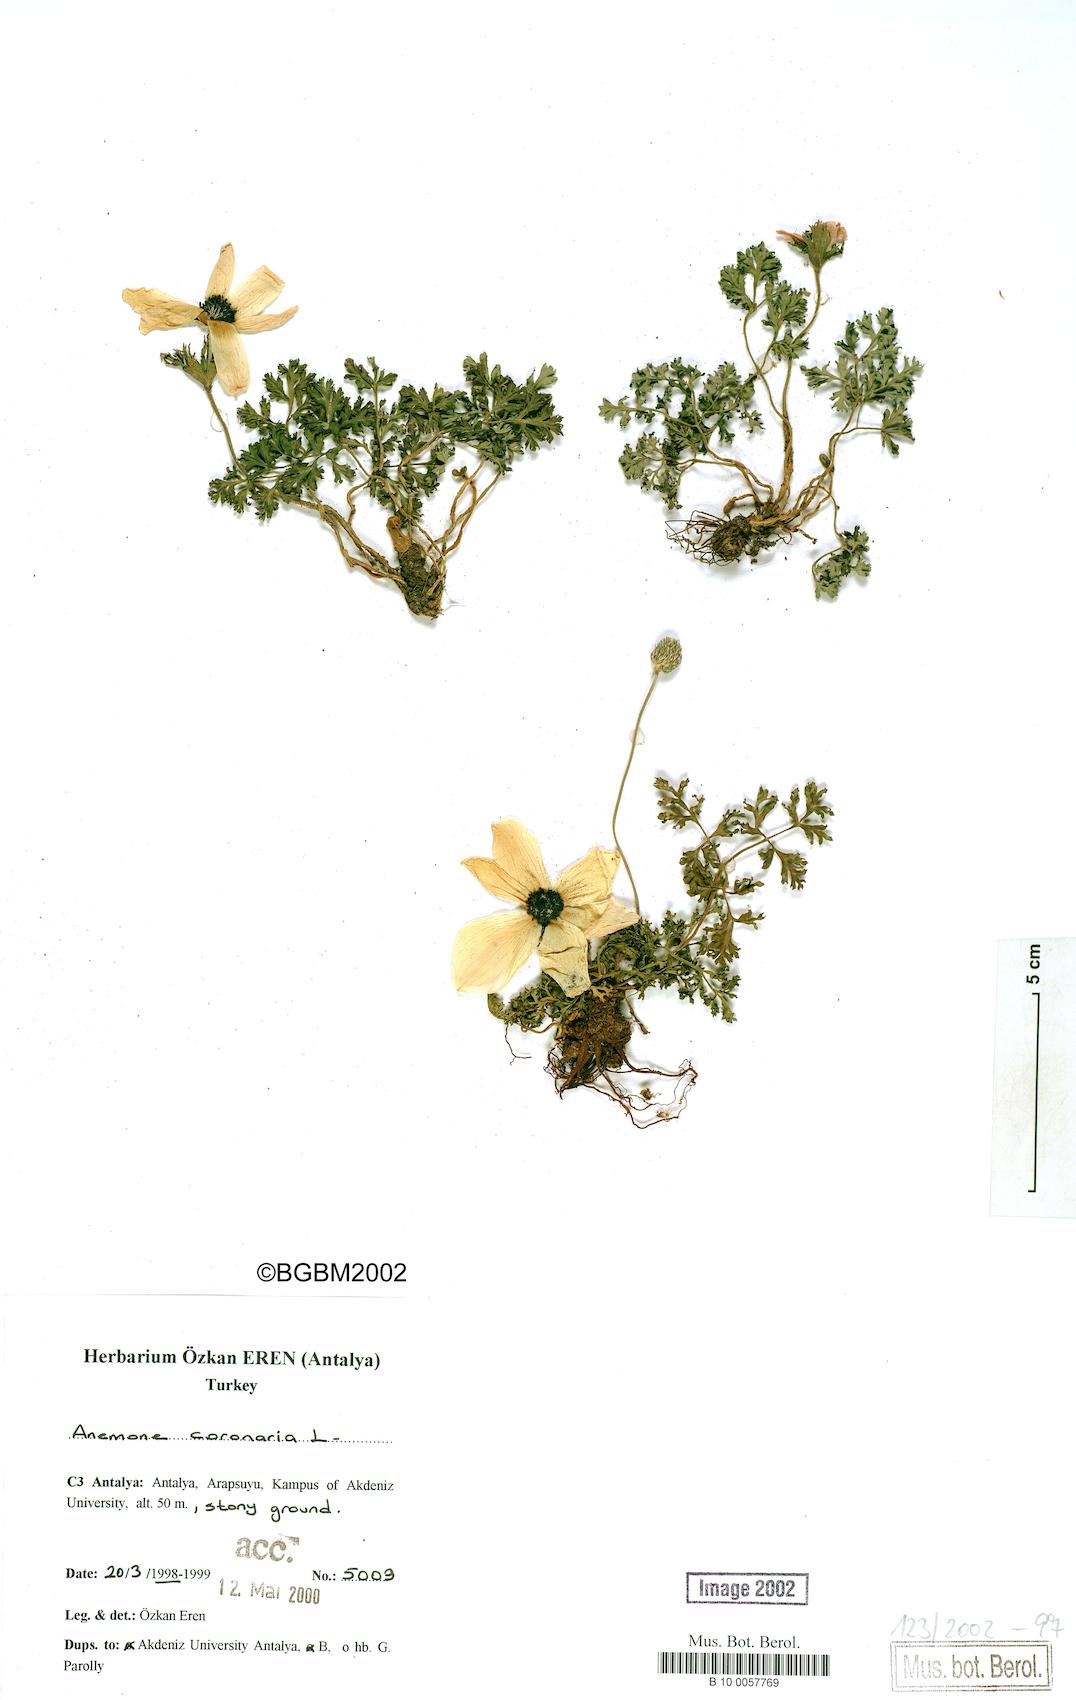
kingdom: Plantae
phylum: Tracheophyta
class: Magnoliopsida
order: Ranunculales
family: Ranunculaceae
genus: Anemone
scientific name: Anemone coronaria
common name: Poppy anemone
